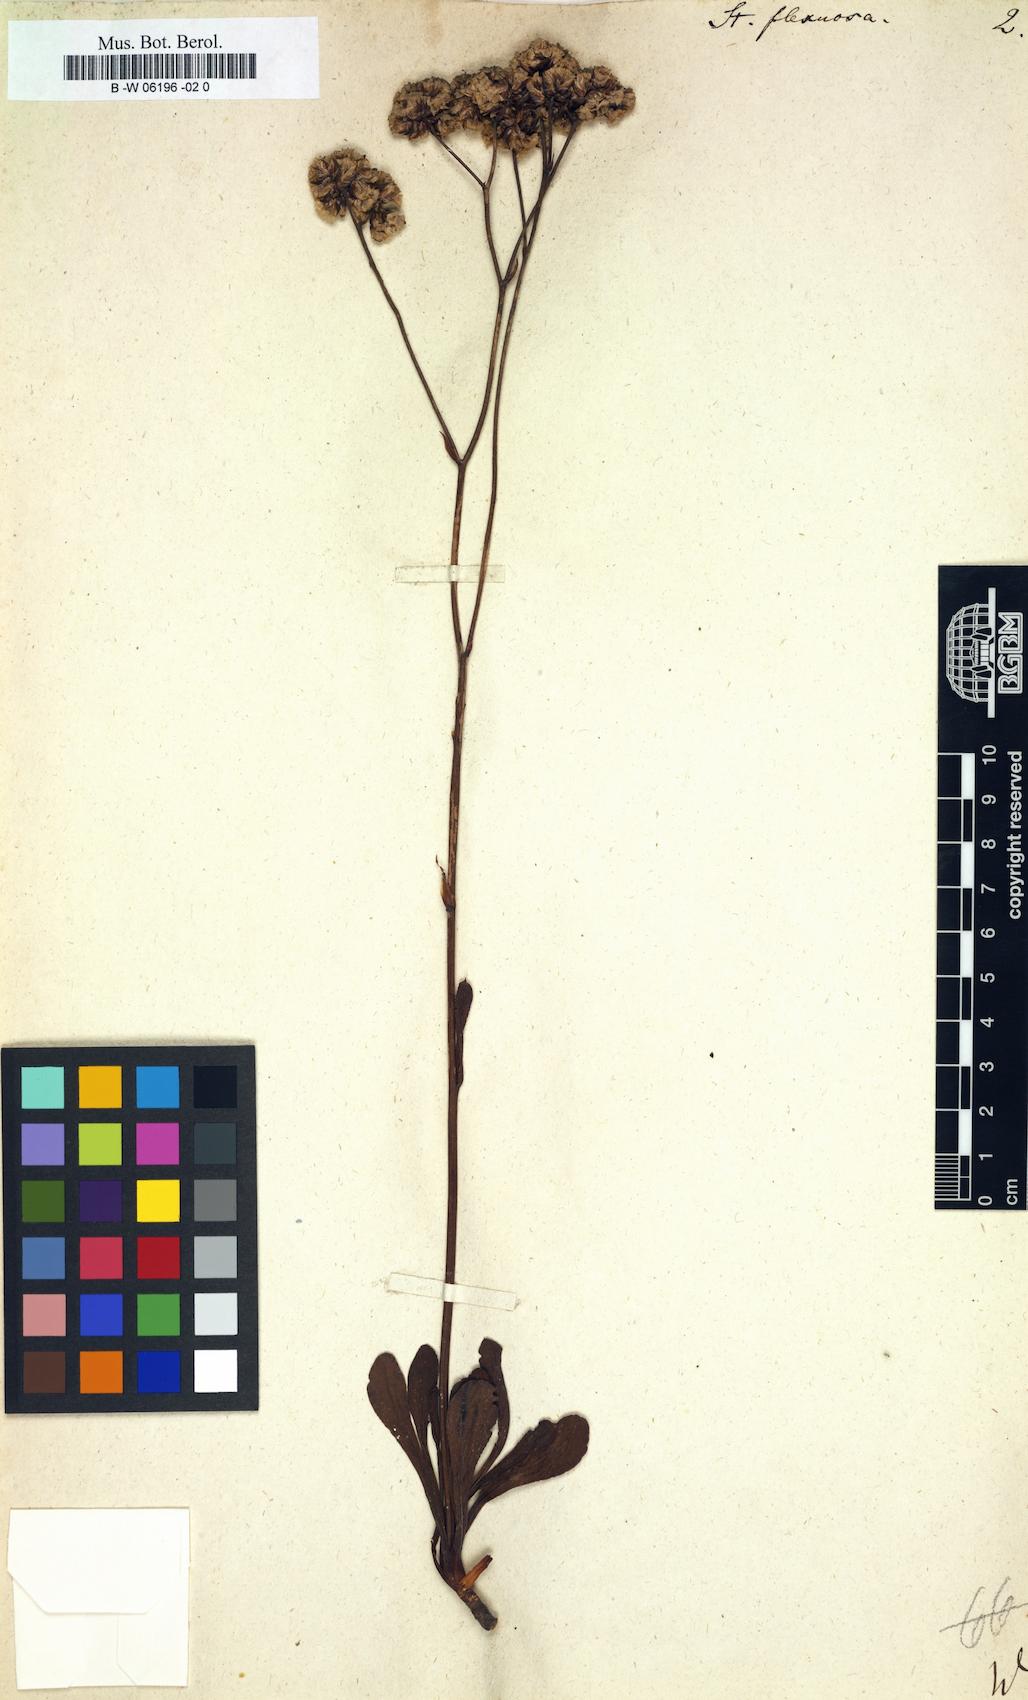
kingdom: Plantae
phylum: Tracheophyta
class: Magnoliopsida
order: Caryophyllales
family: Plumbaginaceae
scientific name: Plumbaginaceae
